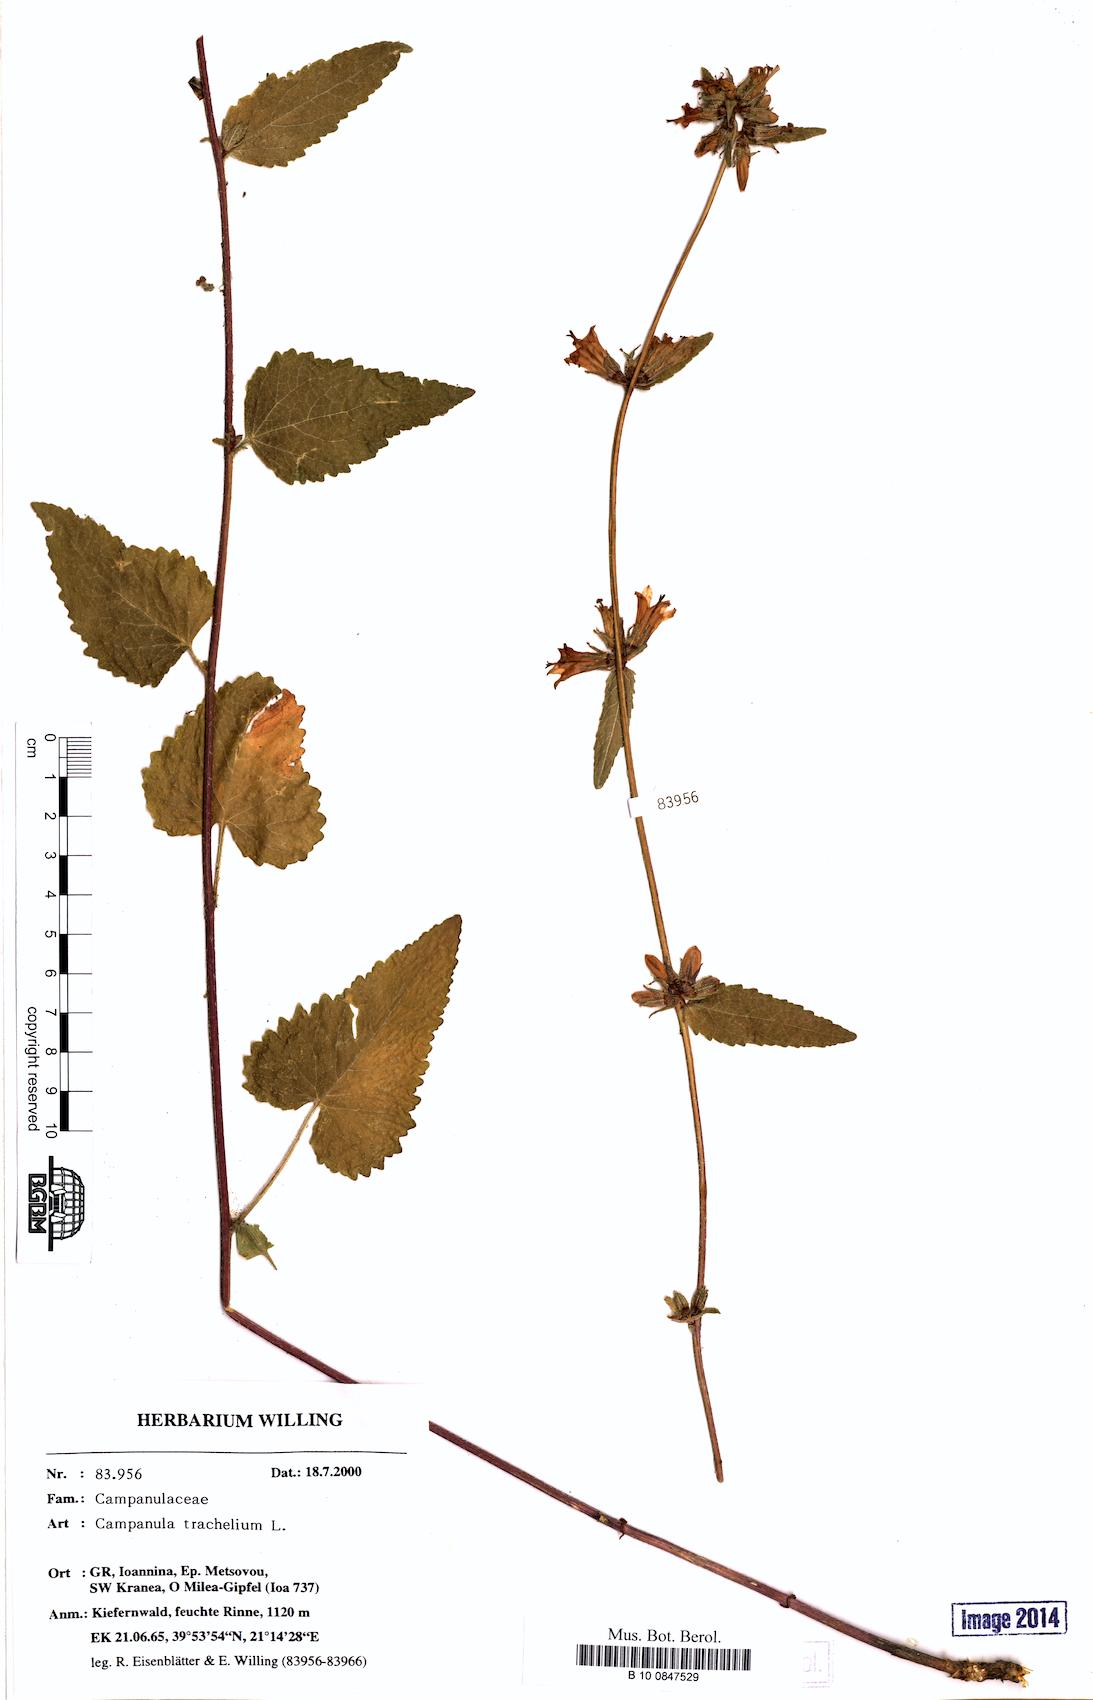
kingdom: Plantae
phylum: Tracheophyta
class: Magnoliopsida
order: Asterales
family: Campanulaceae
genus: Campanula
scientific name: Campanula trachelium
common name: Nettle-leaved bellflower
